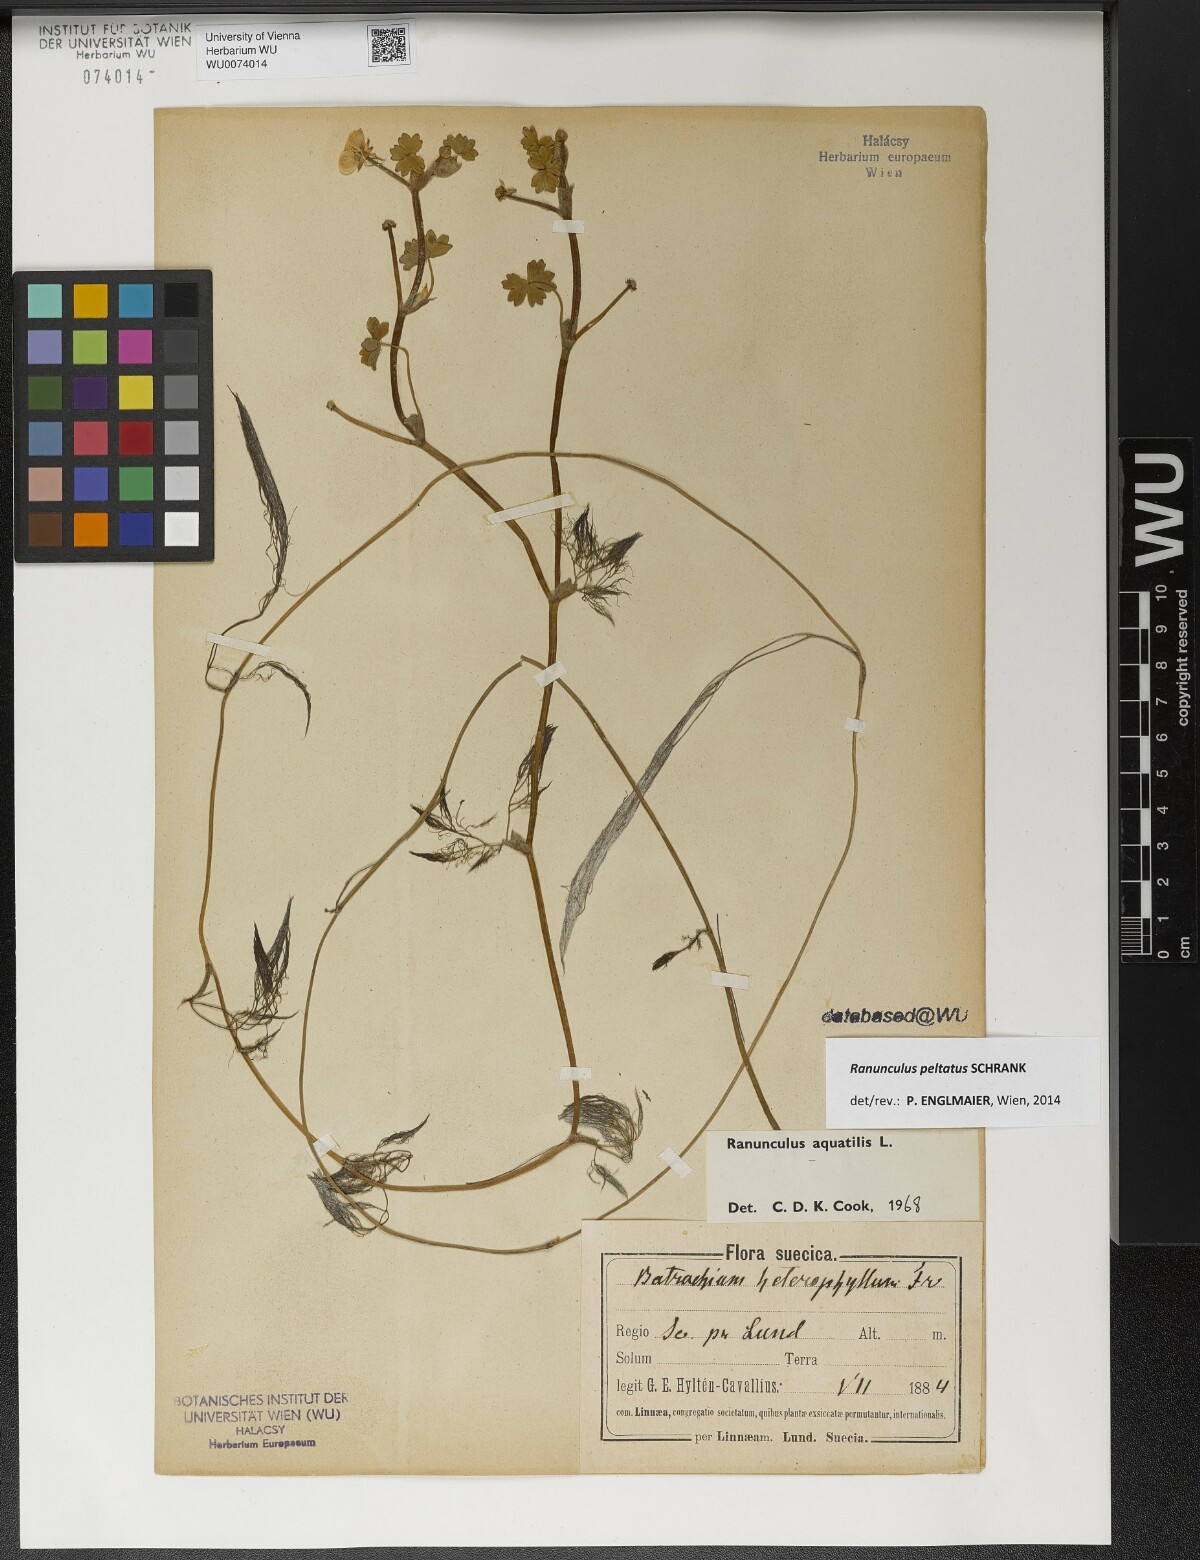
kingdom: Plantae
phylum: Tracheophyta
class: Magnoliopsida
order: Ranunculales
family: Ranunculaceae
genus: Ranunculus
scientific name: Ranunculus peltatus
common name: Pond water-crowfoot
